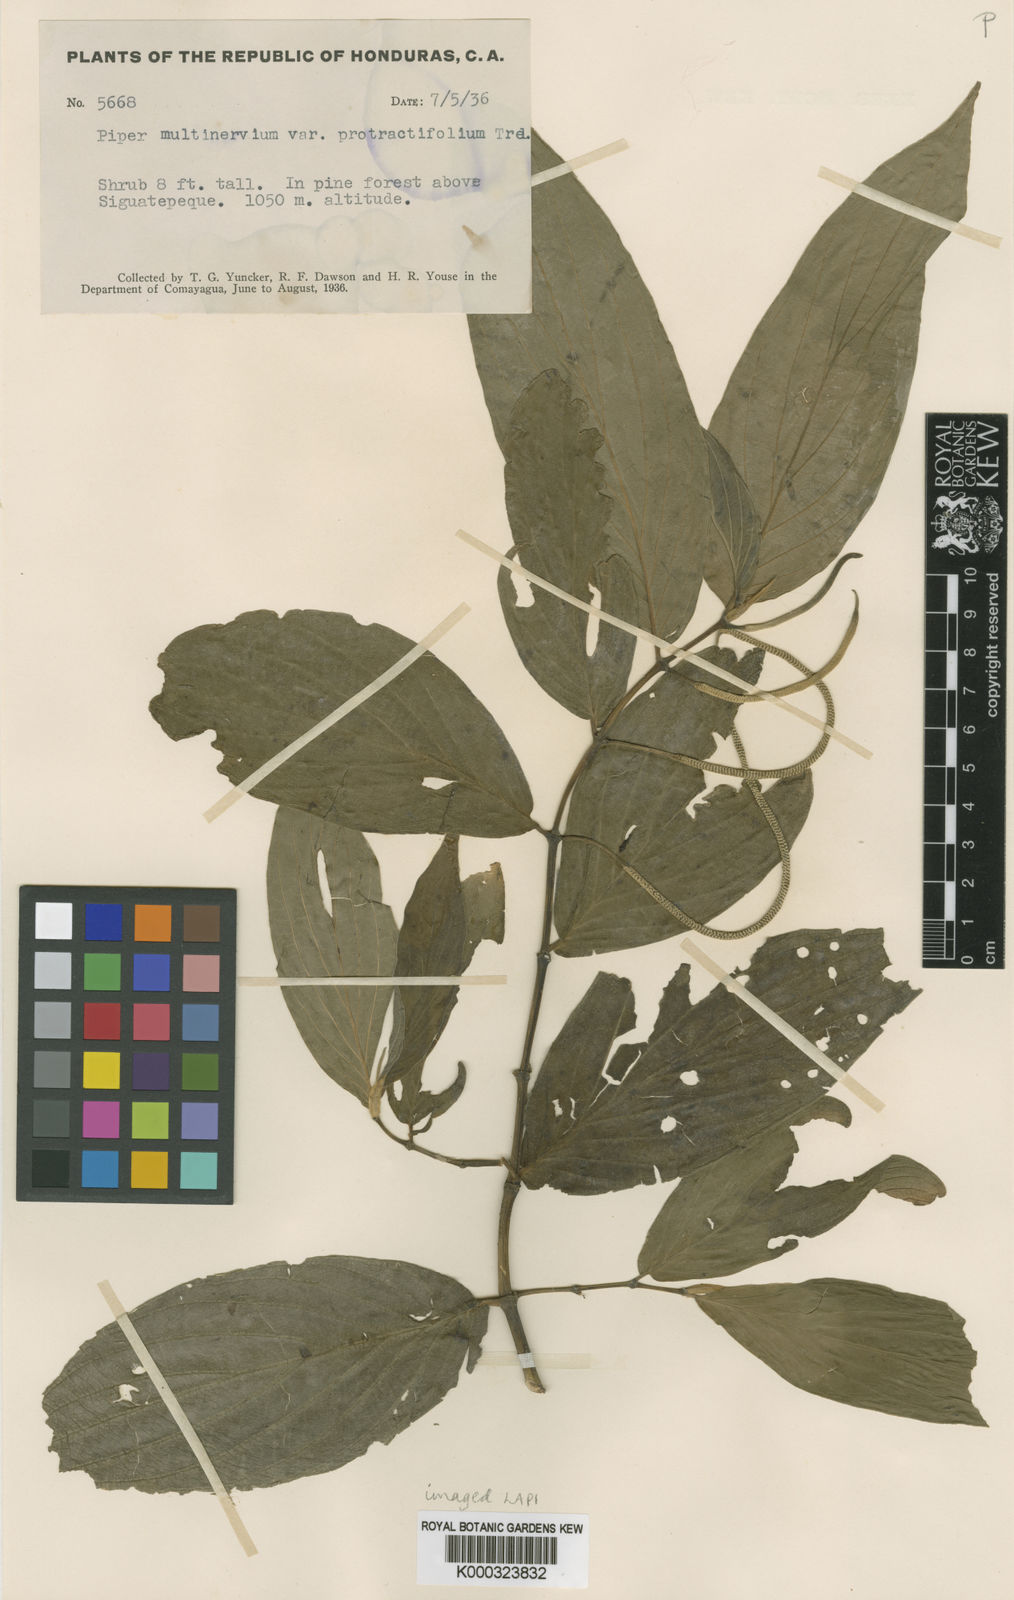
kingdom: Plantae
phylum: Tracheophyta
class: Magnoliopsida
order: Piperales
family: Piperaceae
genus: Piper
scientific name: Piper aduncum
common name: Spiked pepper
